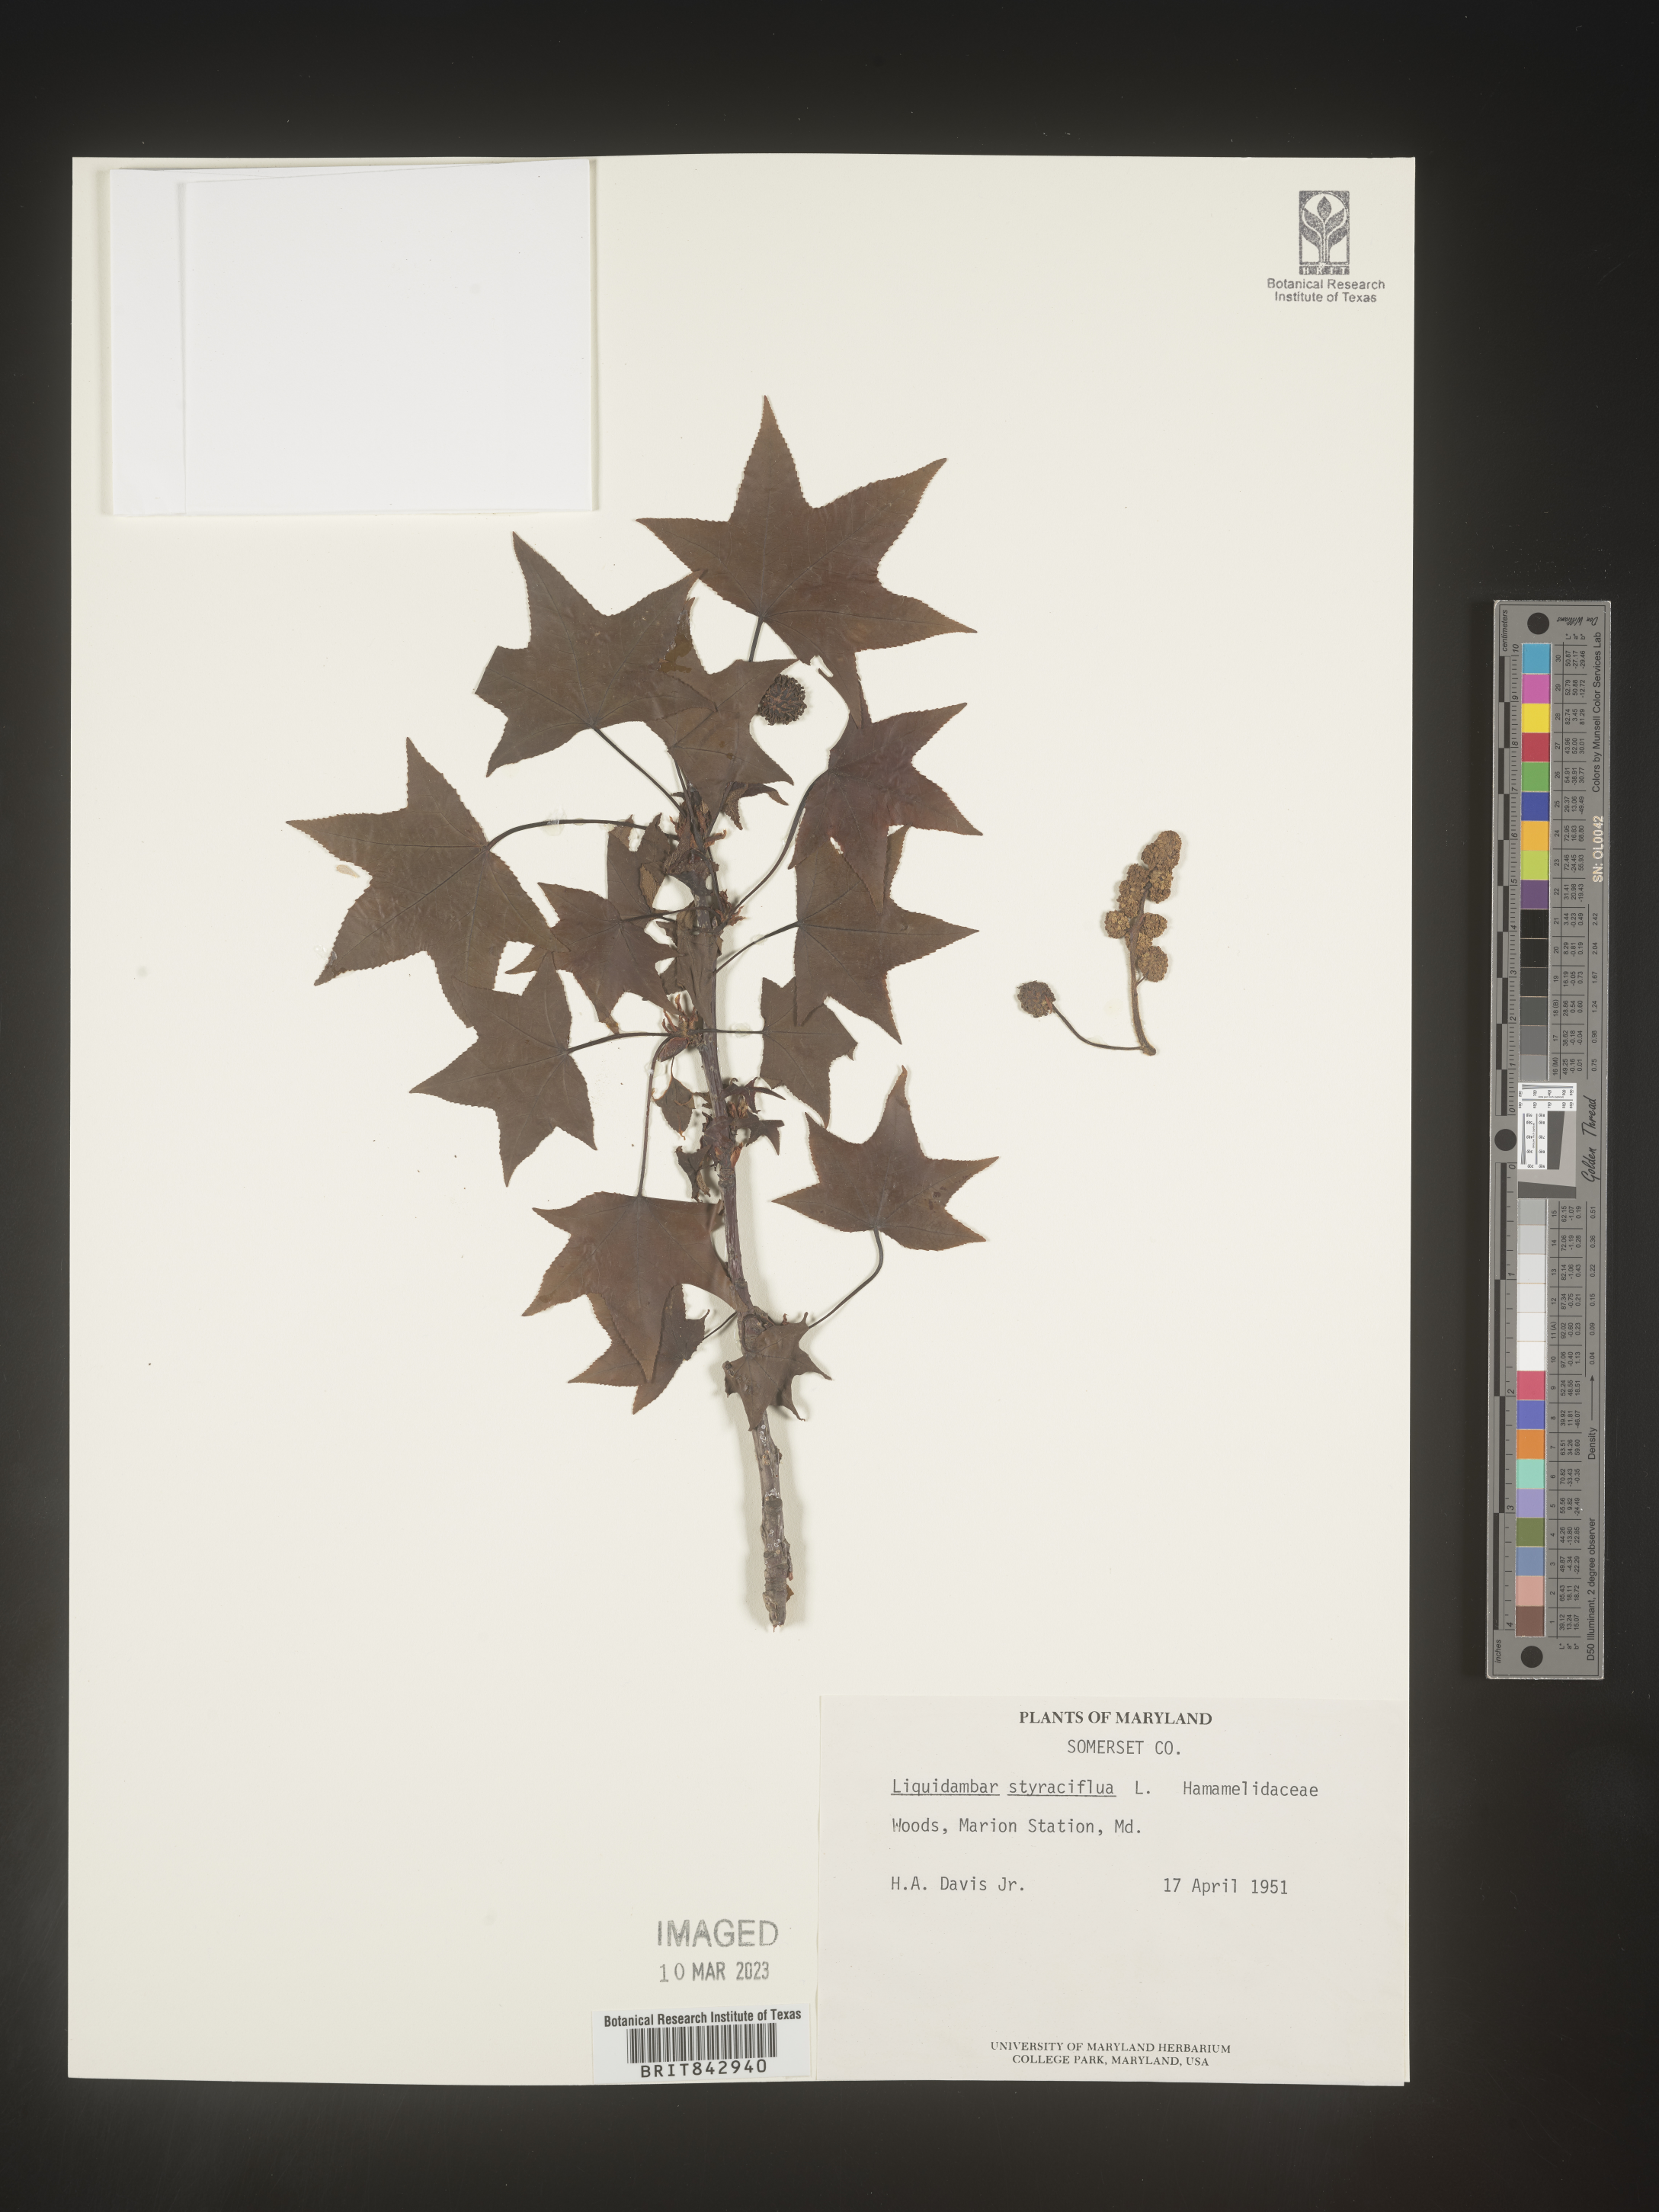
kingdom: Plantae
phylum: Tracheophyta
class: Magnoliopsida
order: Saxifragales
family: Altingiaceae
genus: Liquidambar
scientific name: Liquidambar styraciflua
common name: Sweet gum
